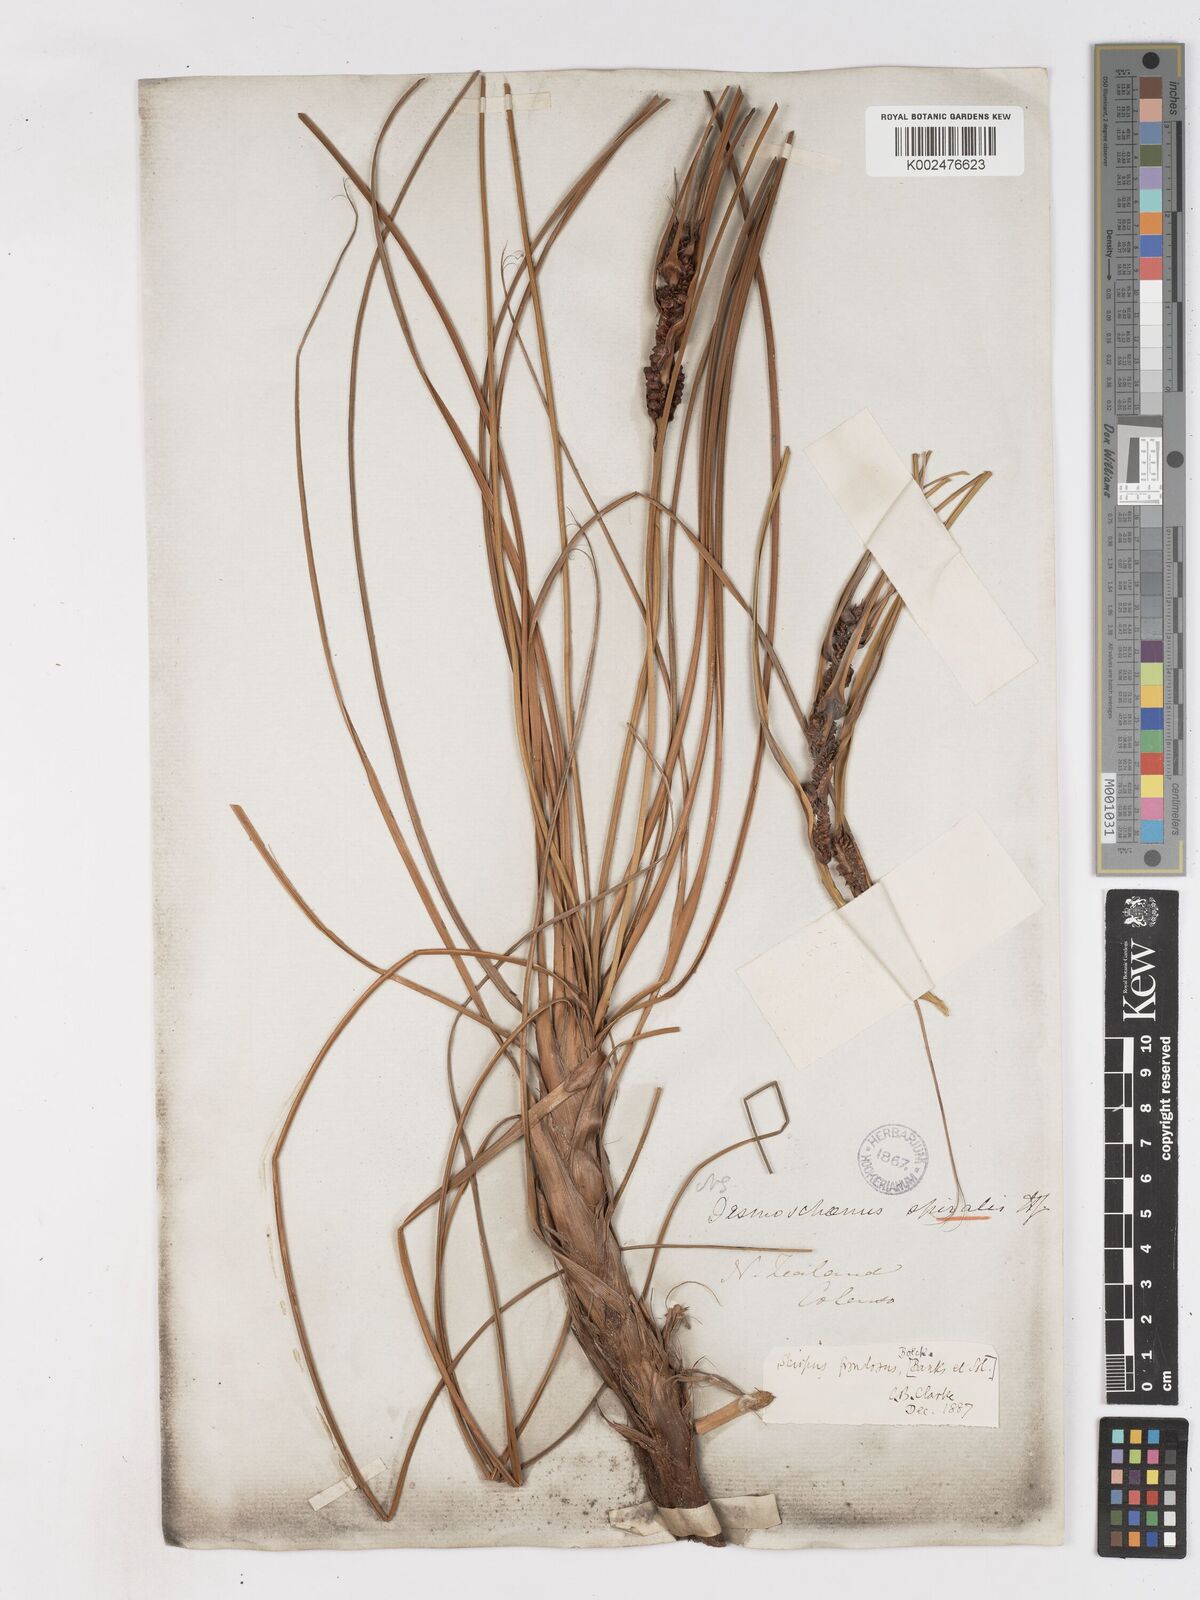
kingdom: Plantae
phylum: Tracheophyta
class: Liliopsida
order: Poales
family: Cyperaceae
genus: Ficinia
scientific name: Ficinia
